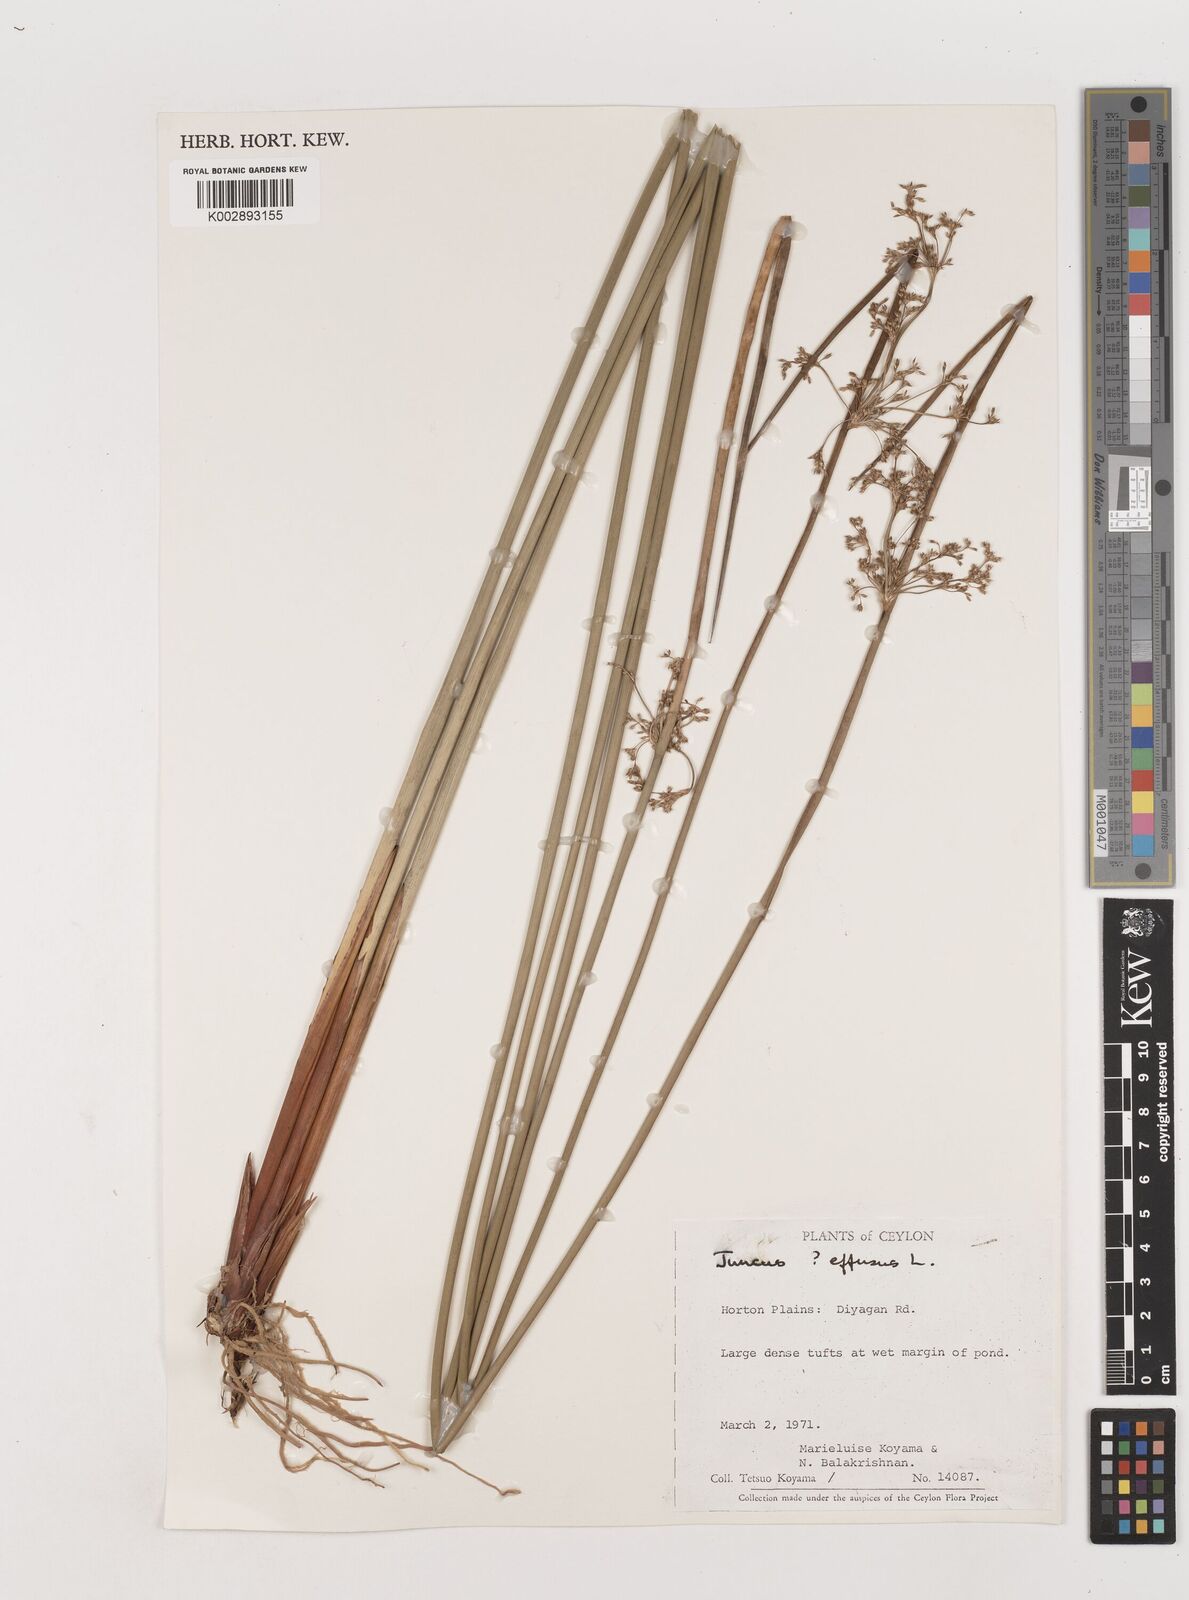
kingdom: Plantae
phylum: Tracheophyta
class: Liliopsida
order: Poales
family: Juncaceae
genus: Juncus
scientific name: Juncus effusus
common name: Soft rush
